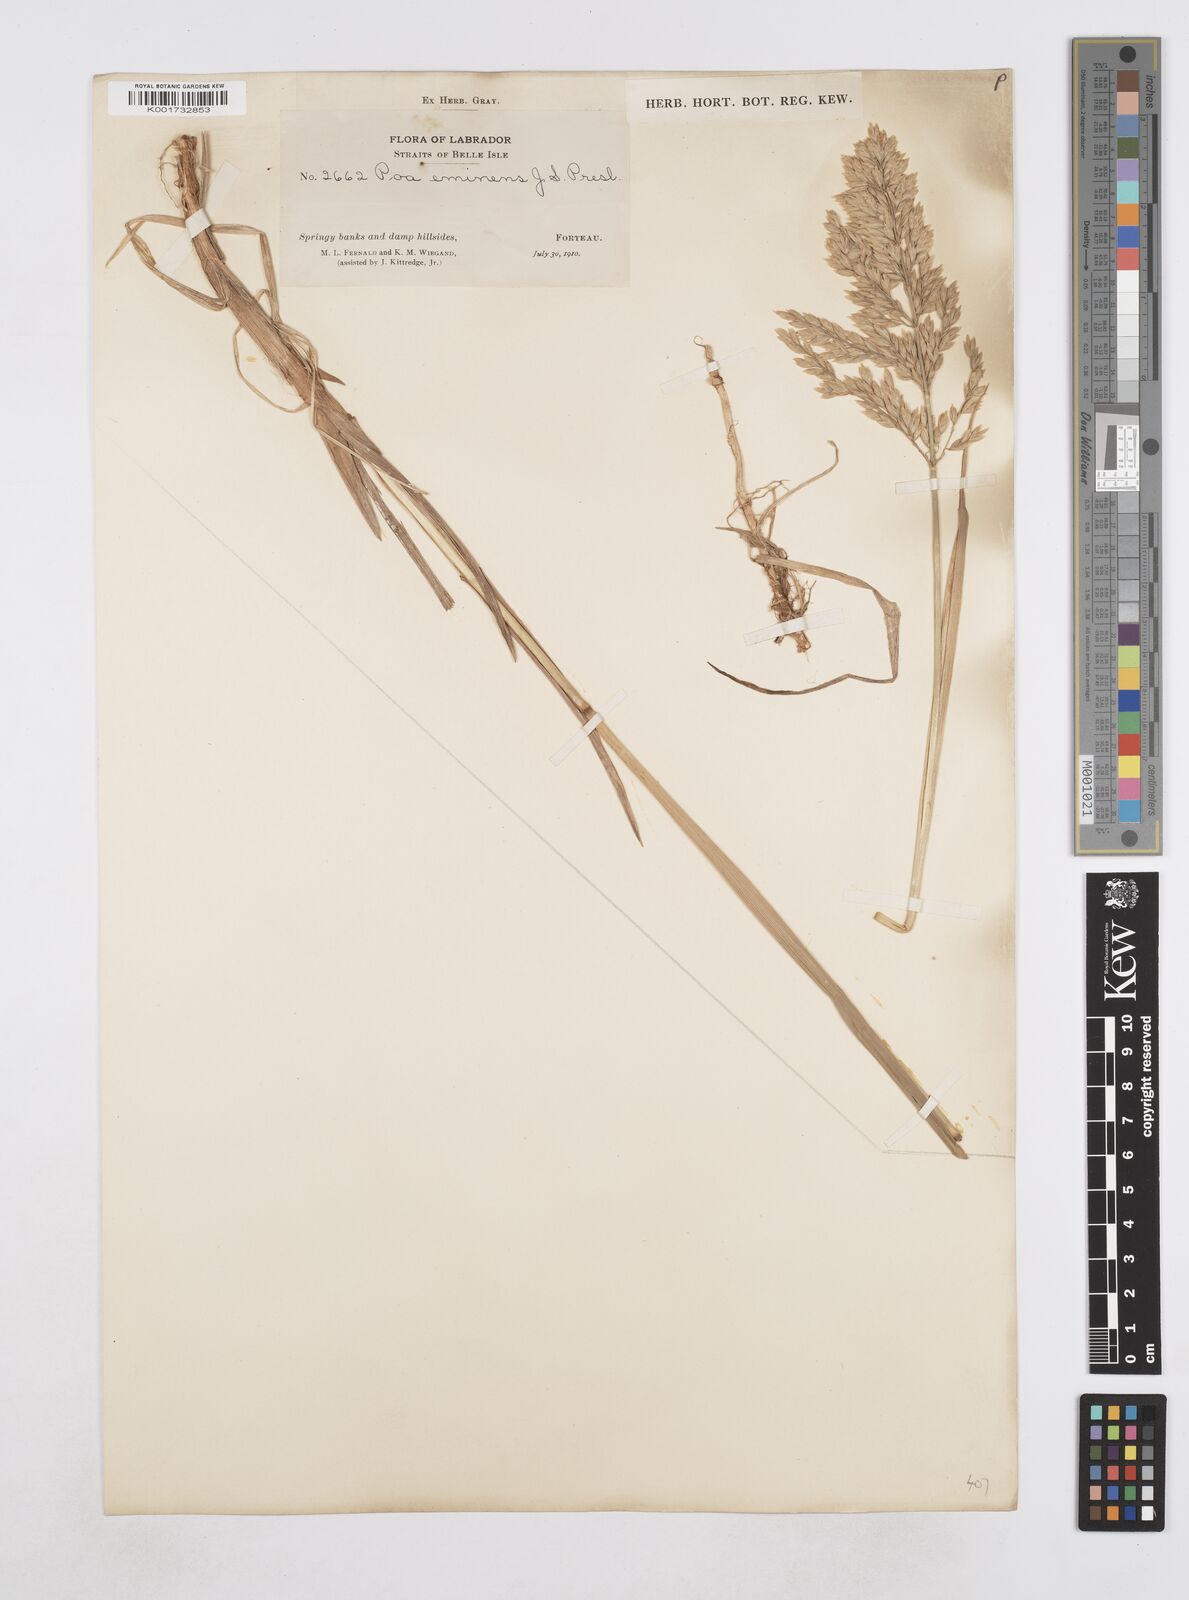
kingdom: Plantae
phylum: Tracheophyta
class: Liliopsida
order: Poales
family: Poaceae
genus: Arctopoa
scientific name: Arctopoa eminens
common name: Eminent bluegrass
